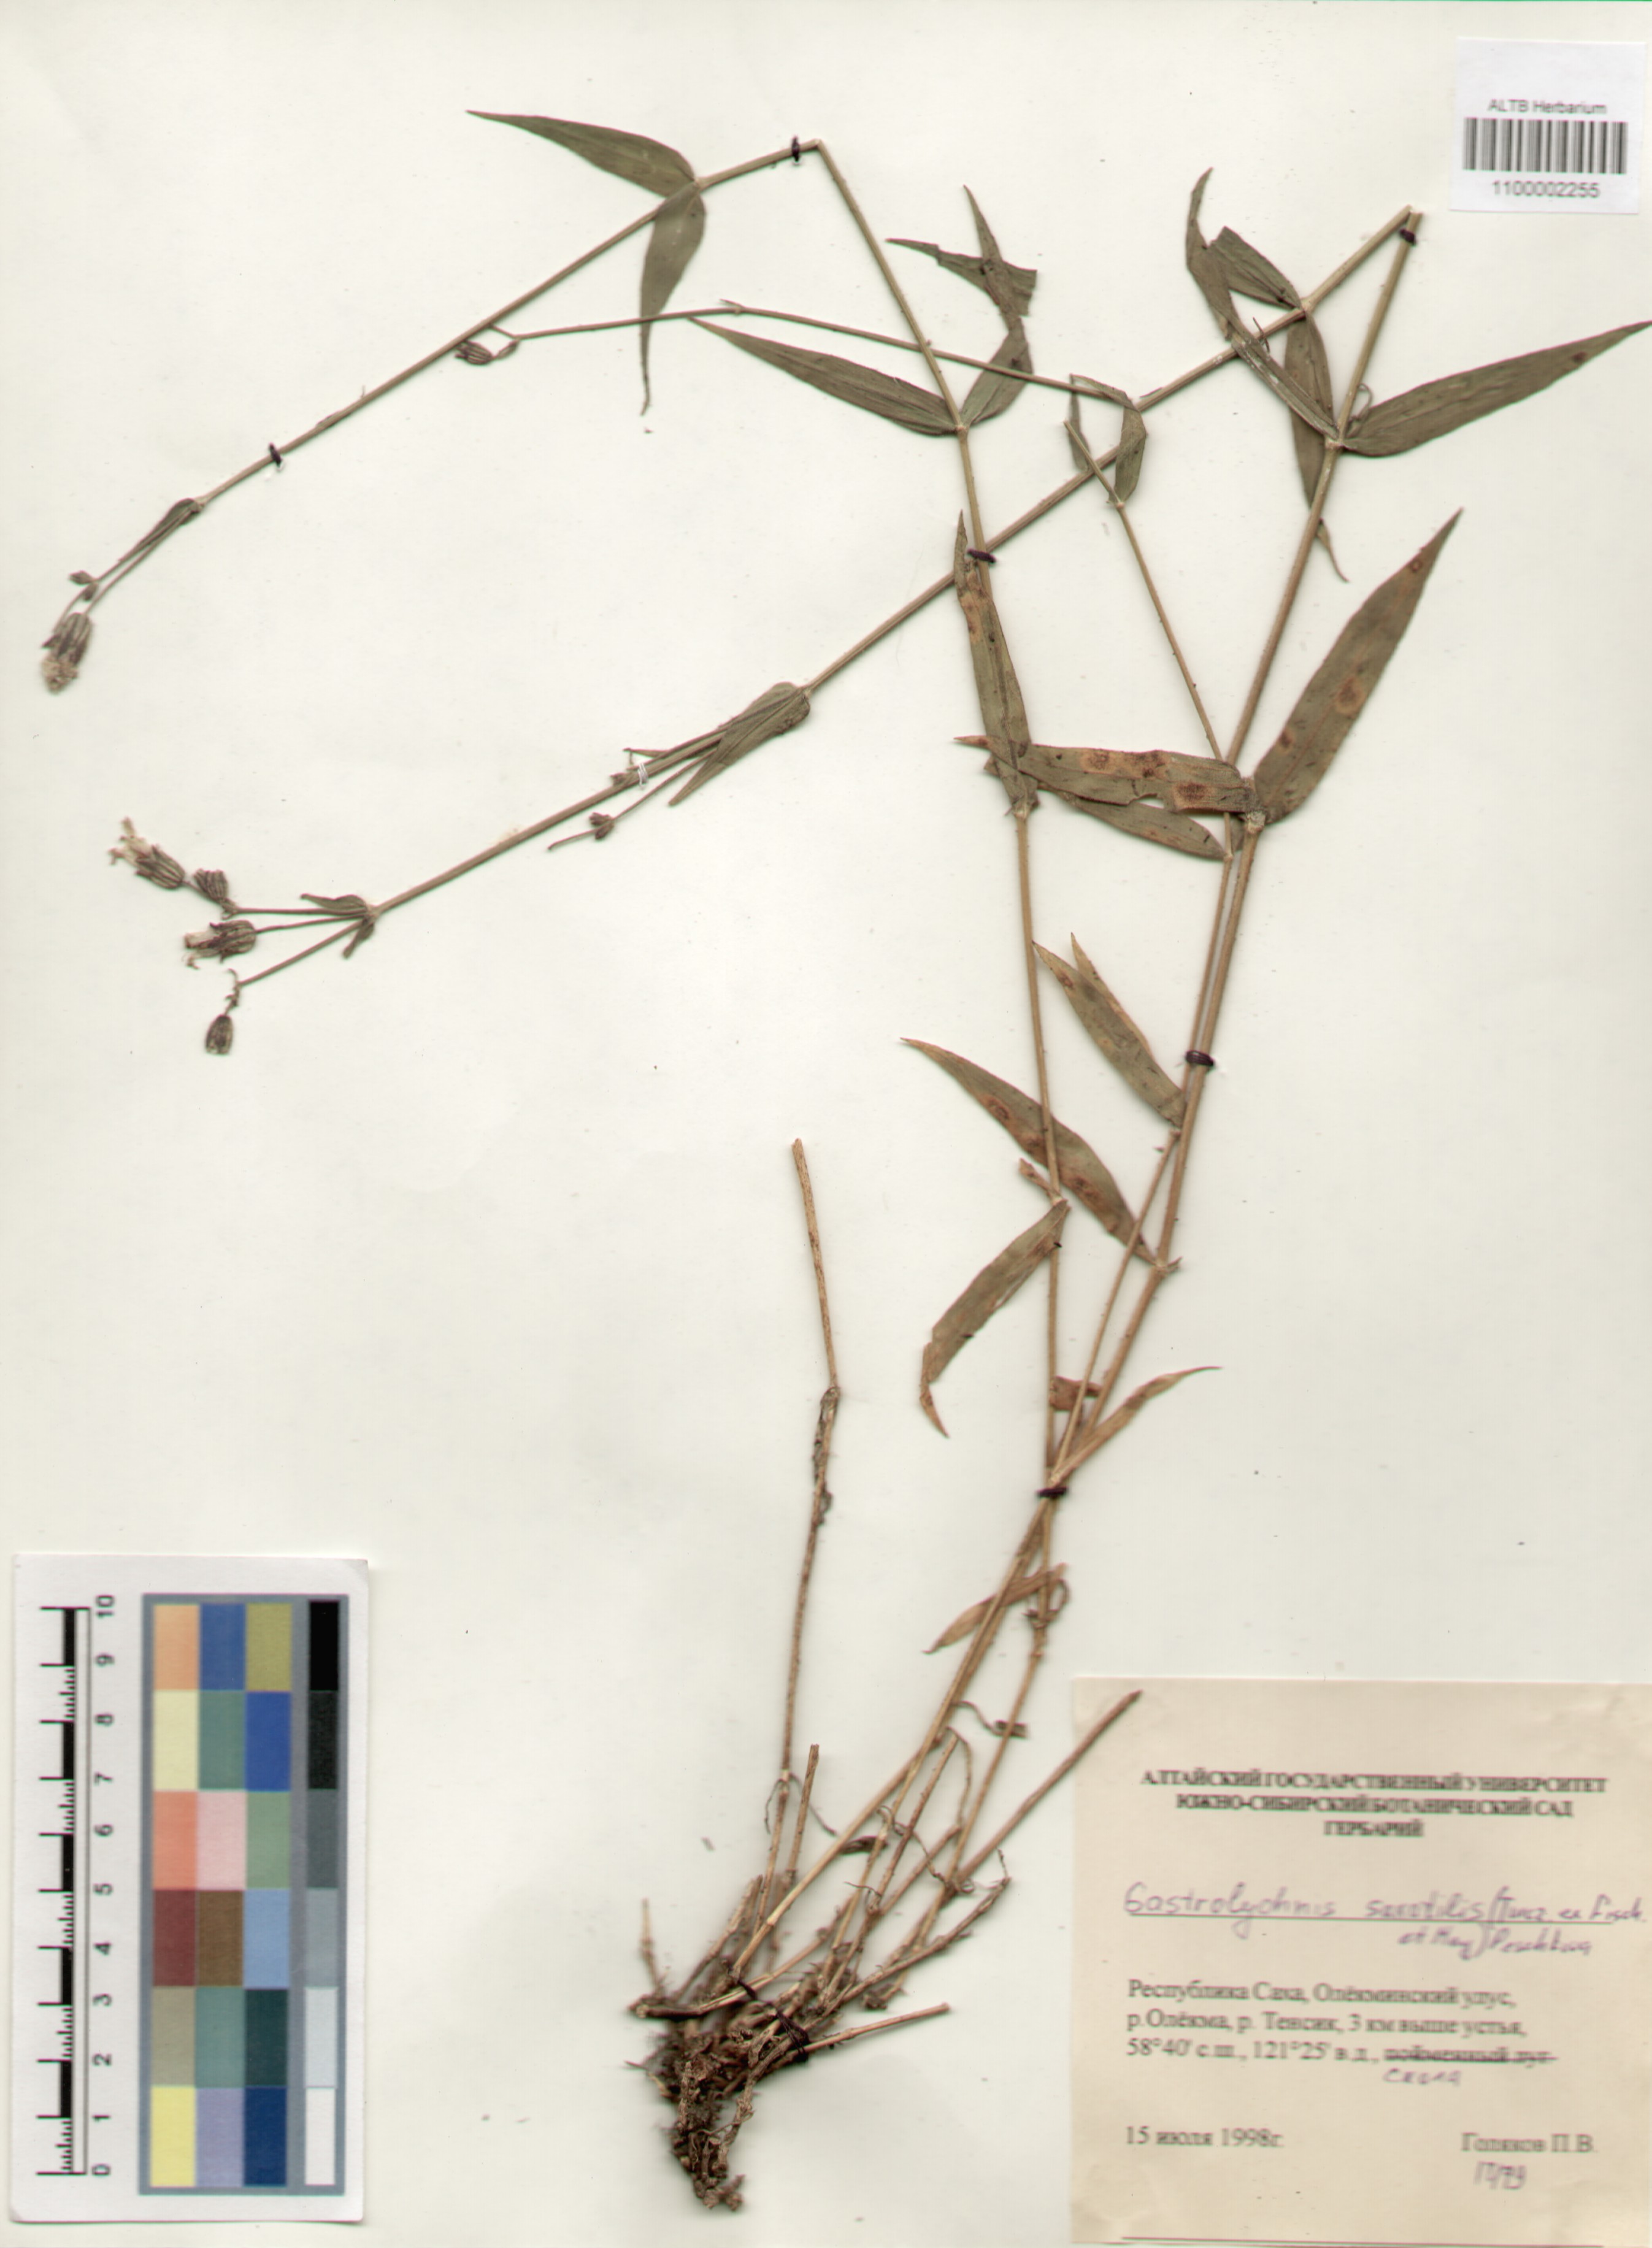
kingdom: Plantae
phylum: Tracheophyta
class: Magnoliopsida
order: Caryophyllales
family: Caryophyllaceae
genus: Silene
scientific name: Silene tolmatchevii
